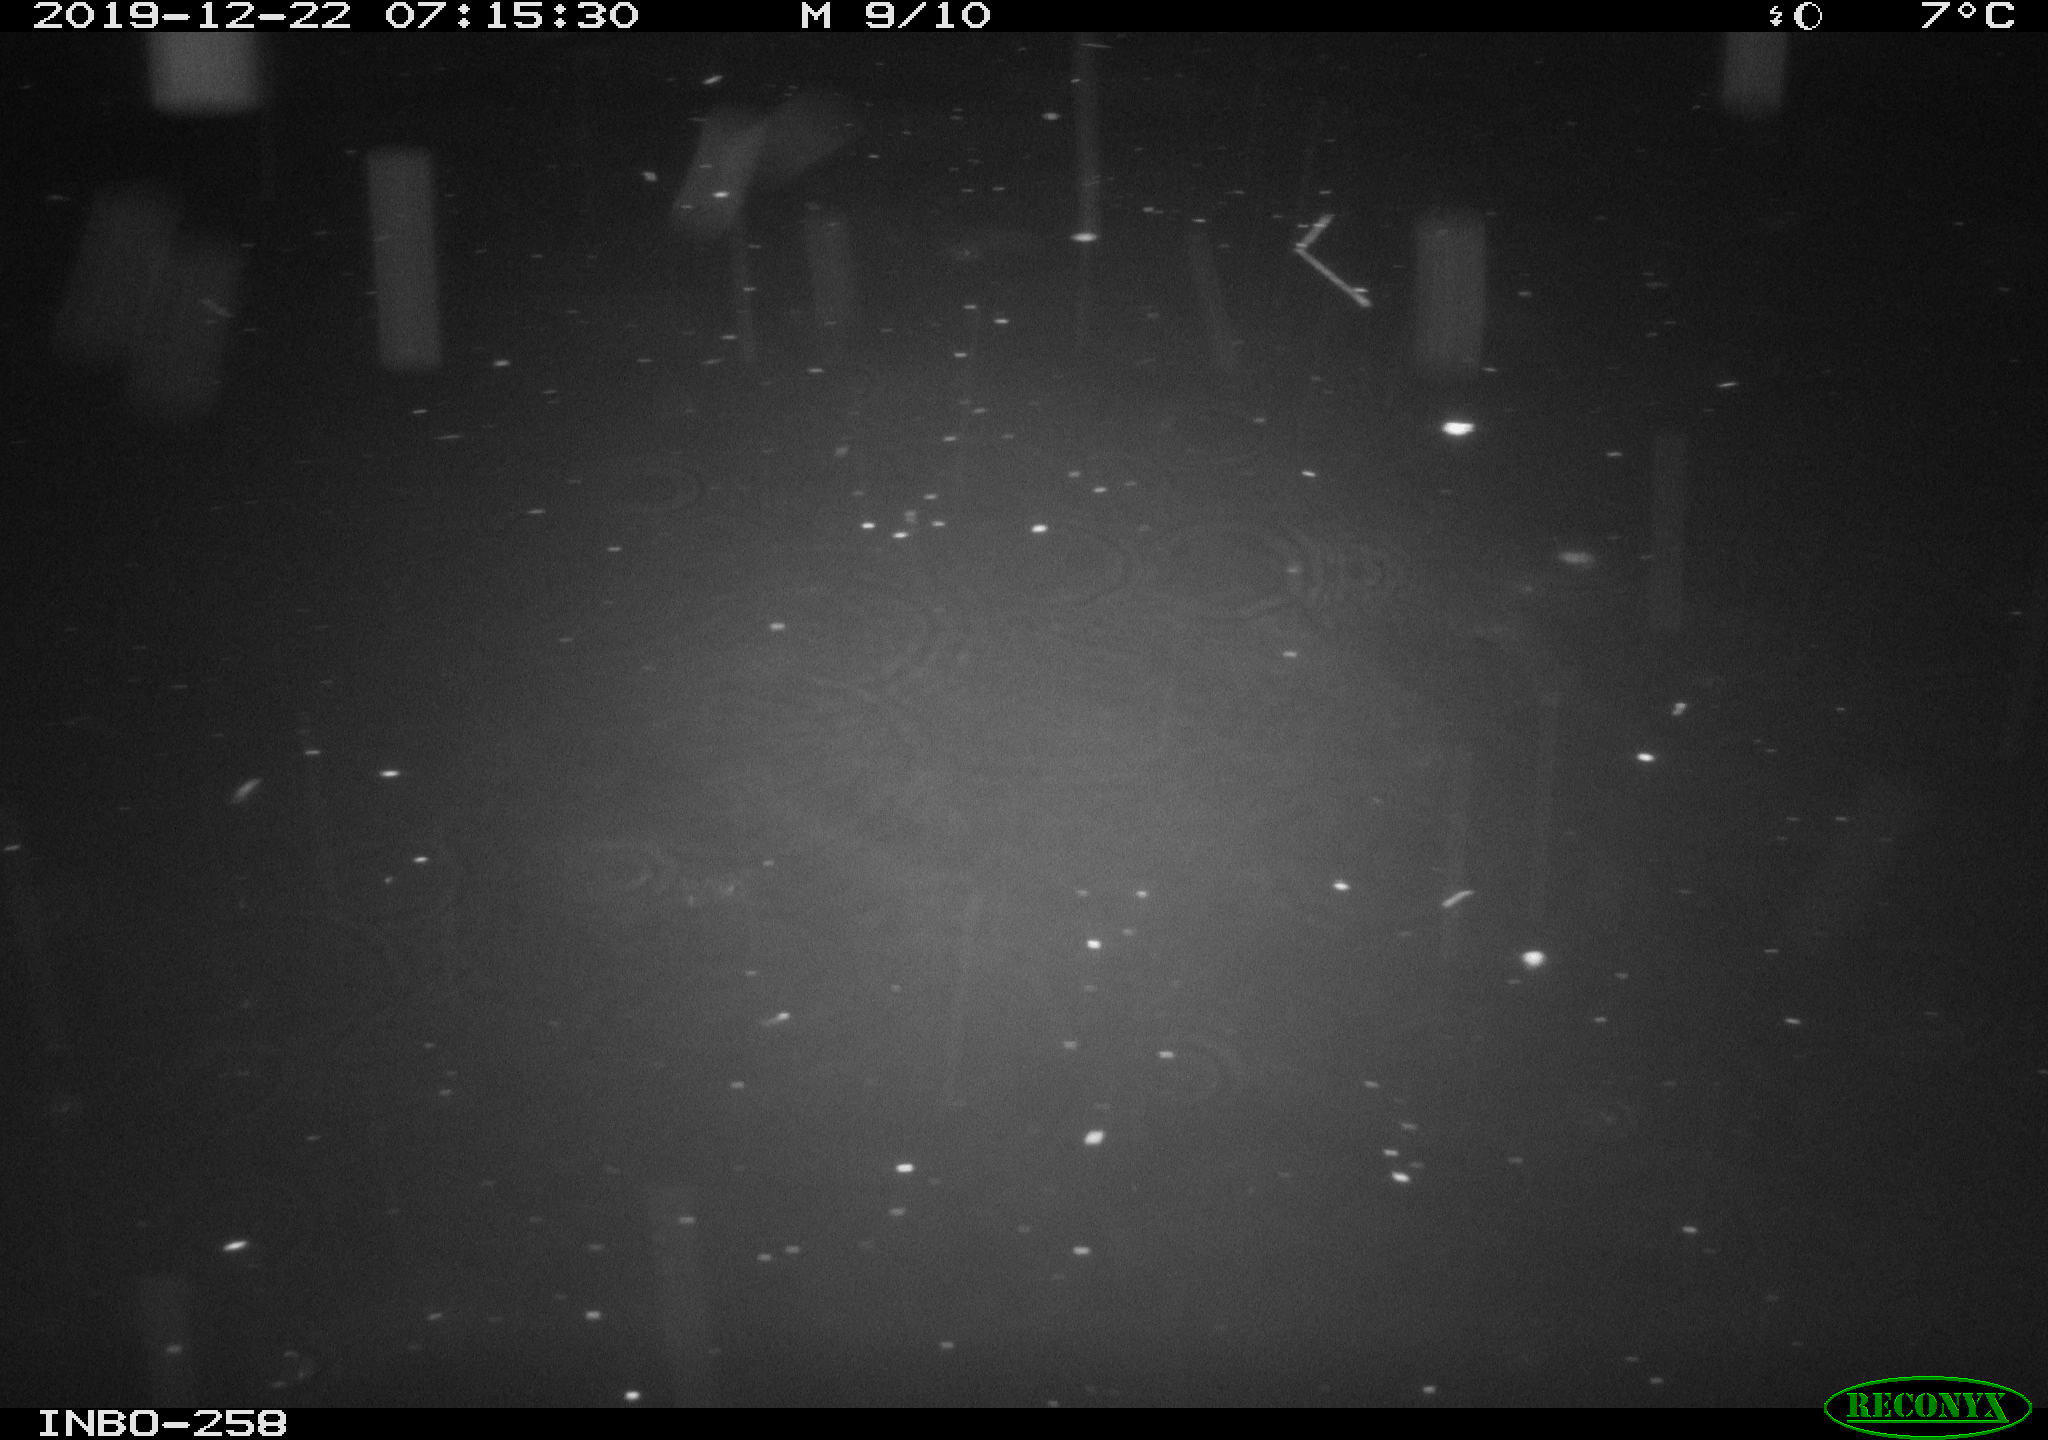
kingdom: Animalia
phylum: Chordata
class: Aves
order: Anseriformes
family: Anatidae
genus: Anas
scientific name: Anas platyrhynchos
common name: Mallard
